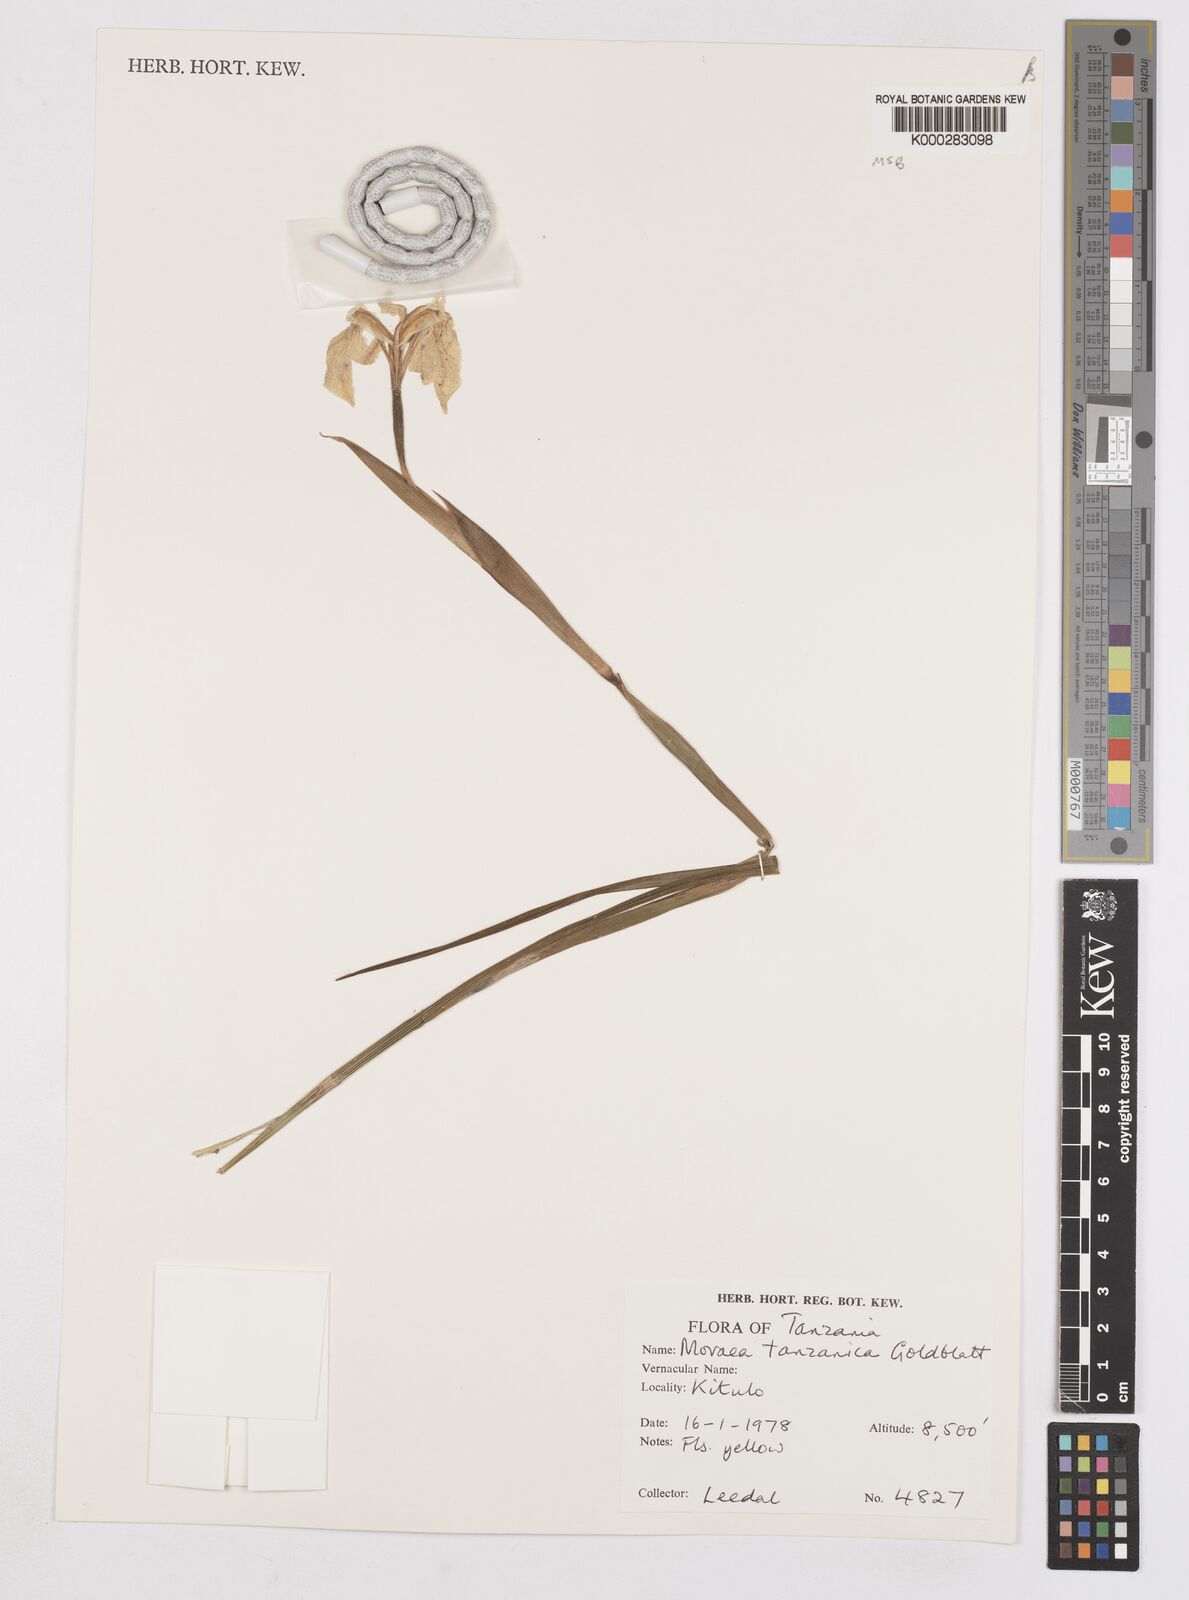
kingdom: Plantae
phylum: Tracheophyta
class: Liliopsida
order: Asparagales
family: Iridaceae
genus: Moraea
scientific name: Moraea tanzanica
